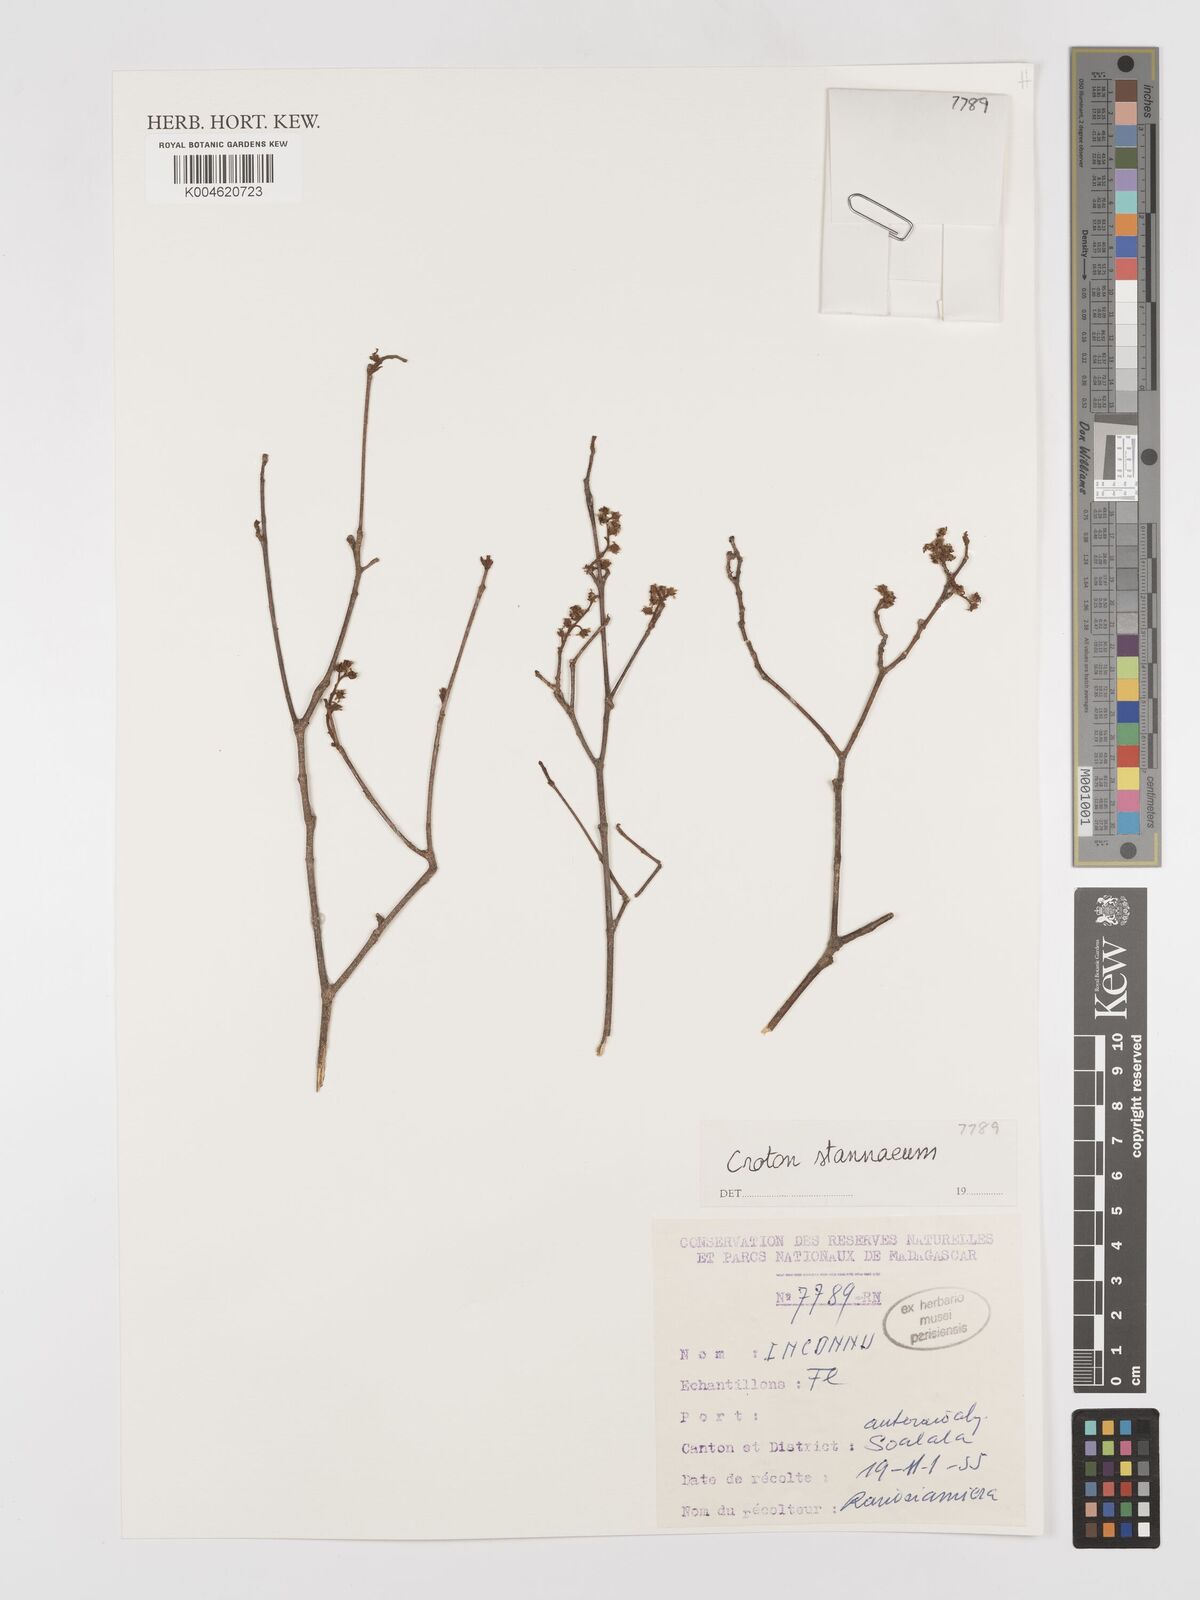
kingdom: Plantae
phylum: Tracheophyta
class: Magnoliopsida
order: Malpighiales
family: Euphorbiaceae
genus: Croton
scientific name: Croton
